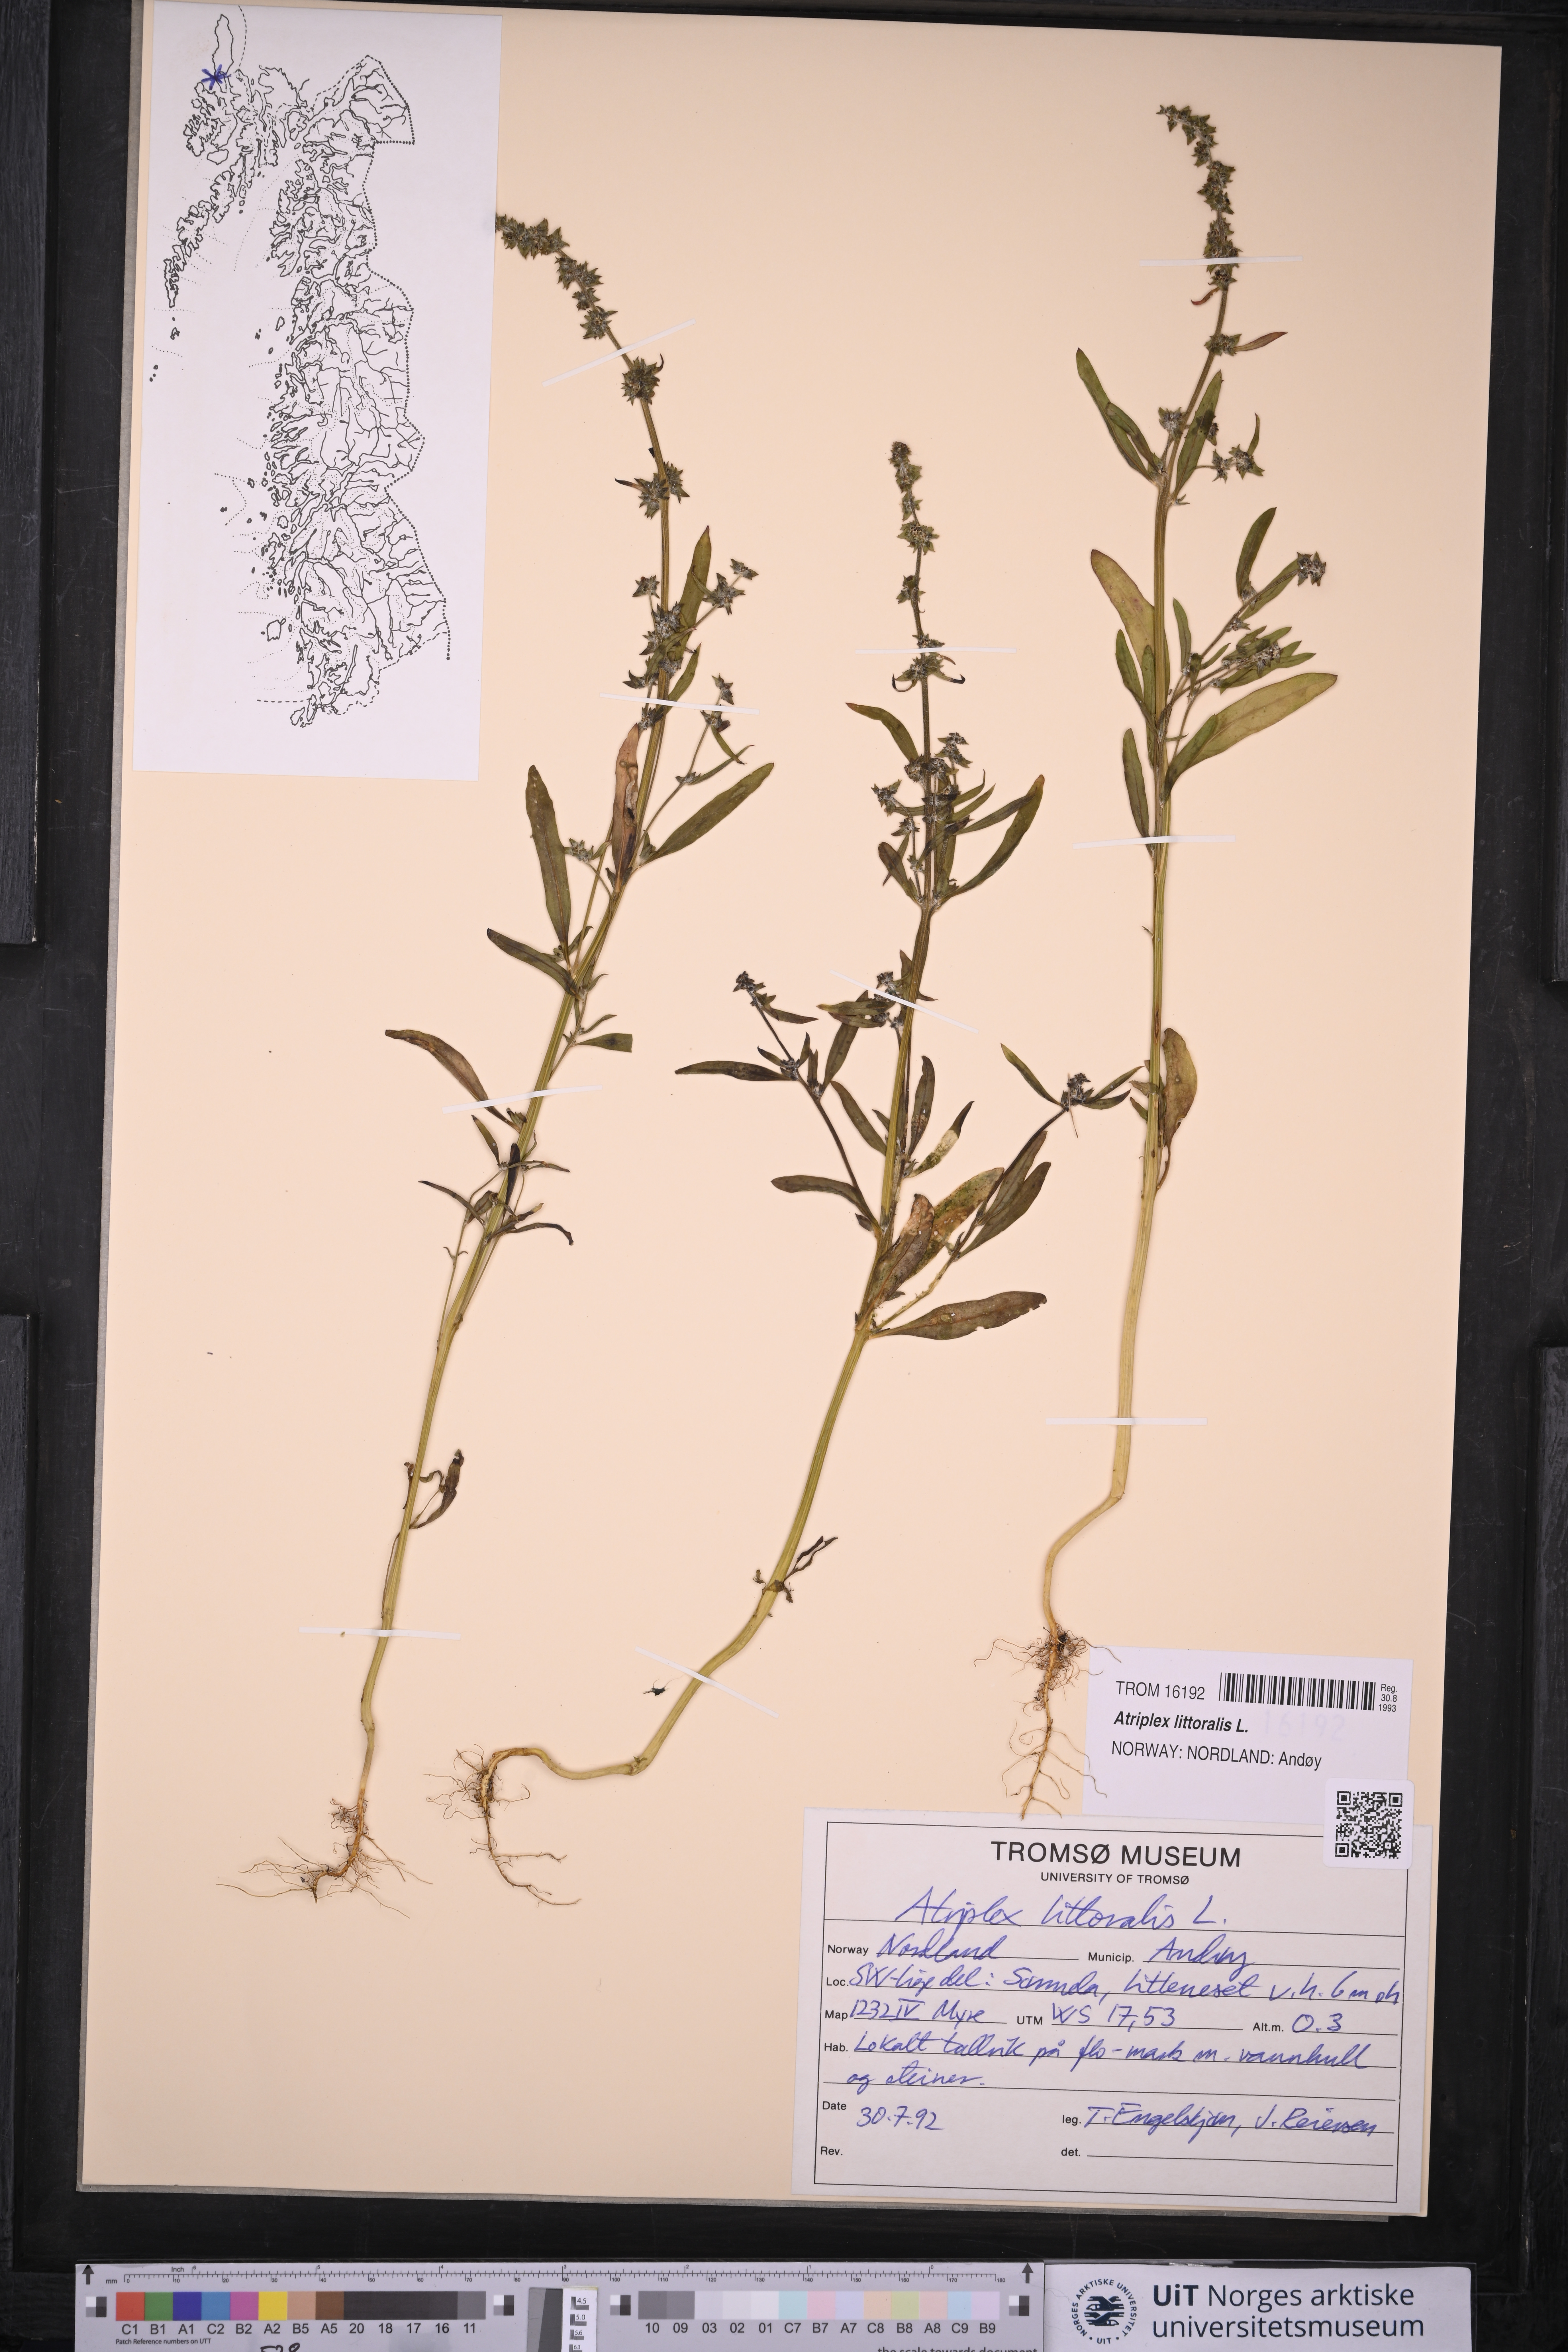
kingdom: Plantae
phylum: Tracheophyta
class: Magnoliopsida
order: Caryophyllales
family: Amaranthaceae
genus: Atriplex
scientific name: Atriplex littoralis
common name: Grass-leaved orache
